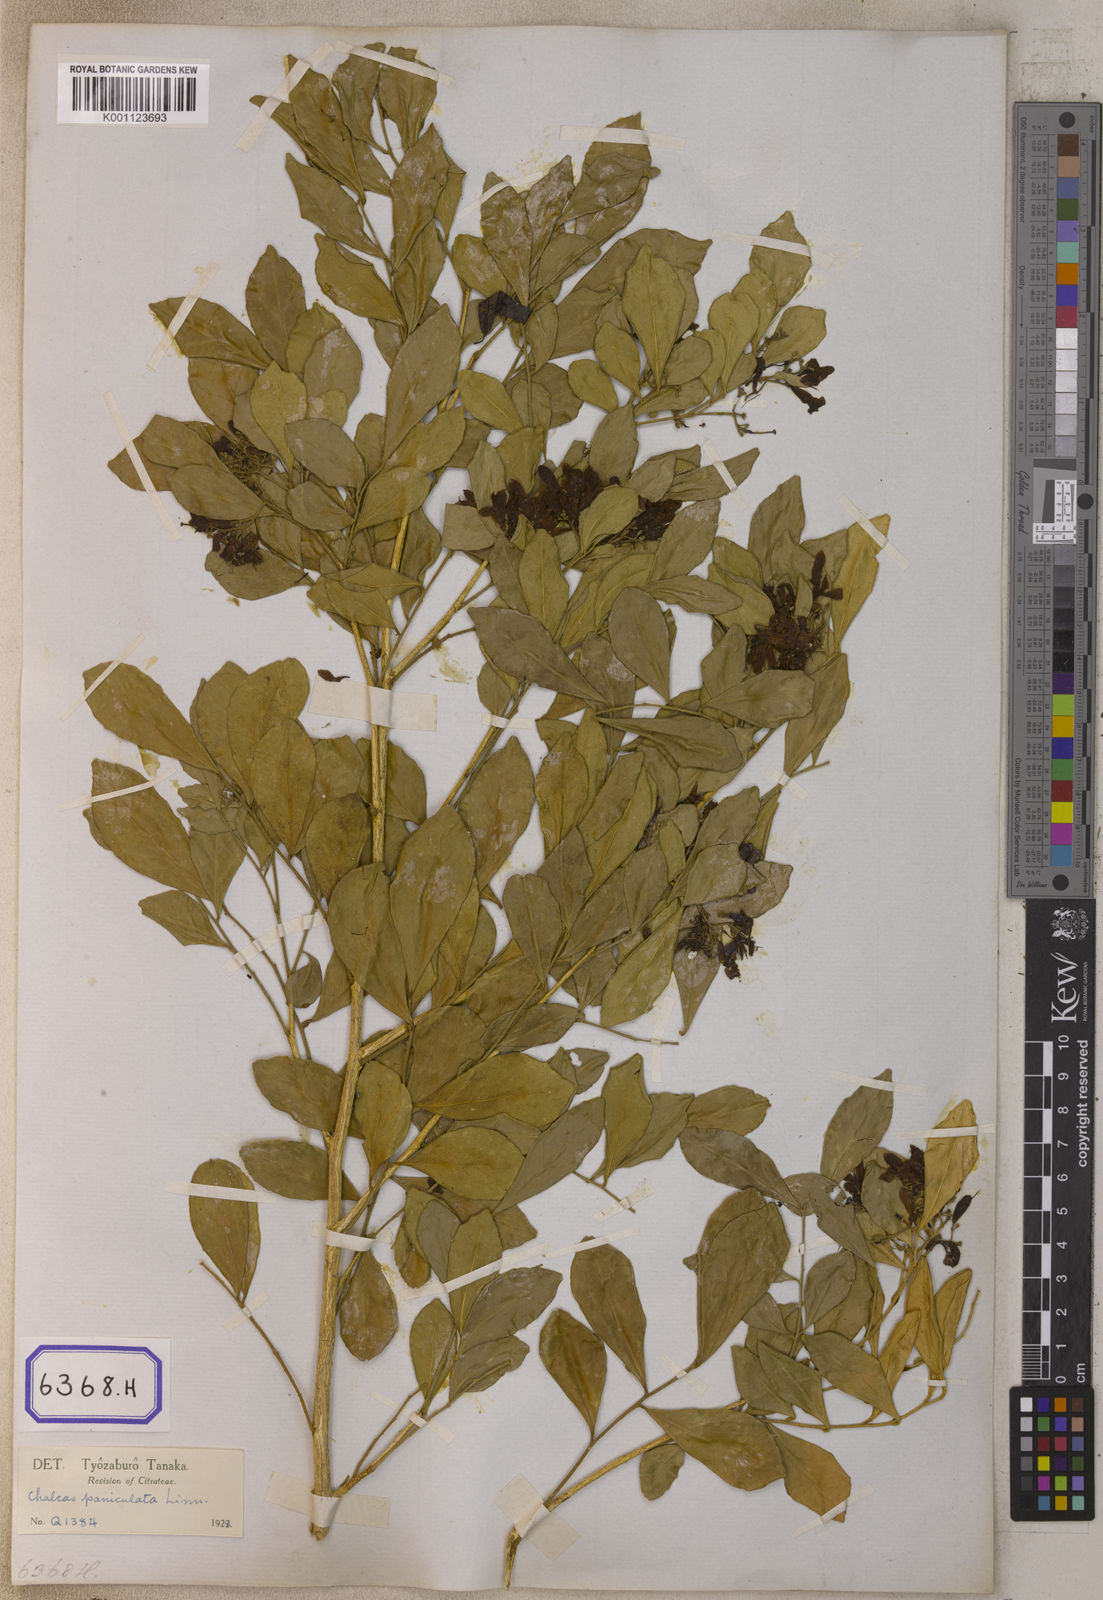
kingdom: Plantae
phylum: Tracheophyta
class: Magnoliopsida
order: Sapindales
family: Rutaceae
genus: Murraya
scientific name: Murraya paniculata
